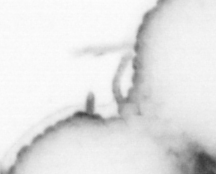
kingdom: Animalia
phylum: Annelida
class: Polychaeta
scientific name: Polychaeta
